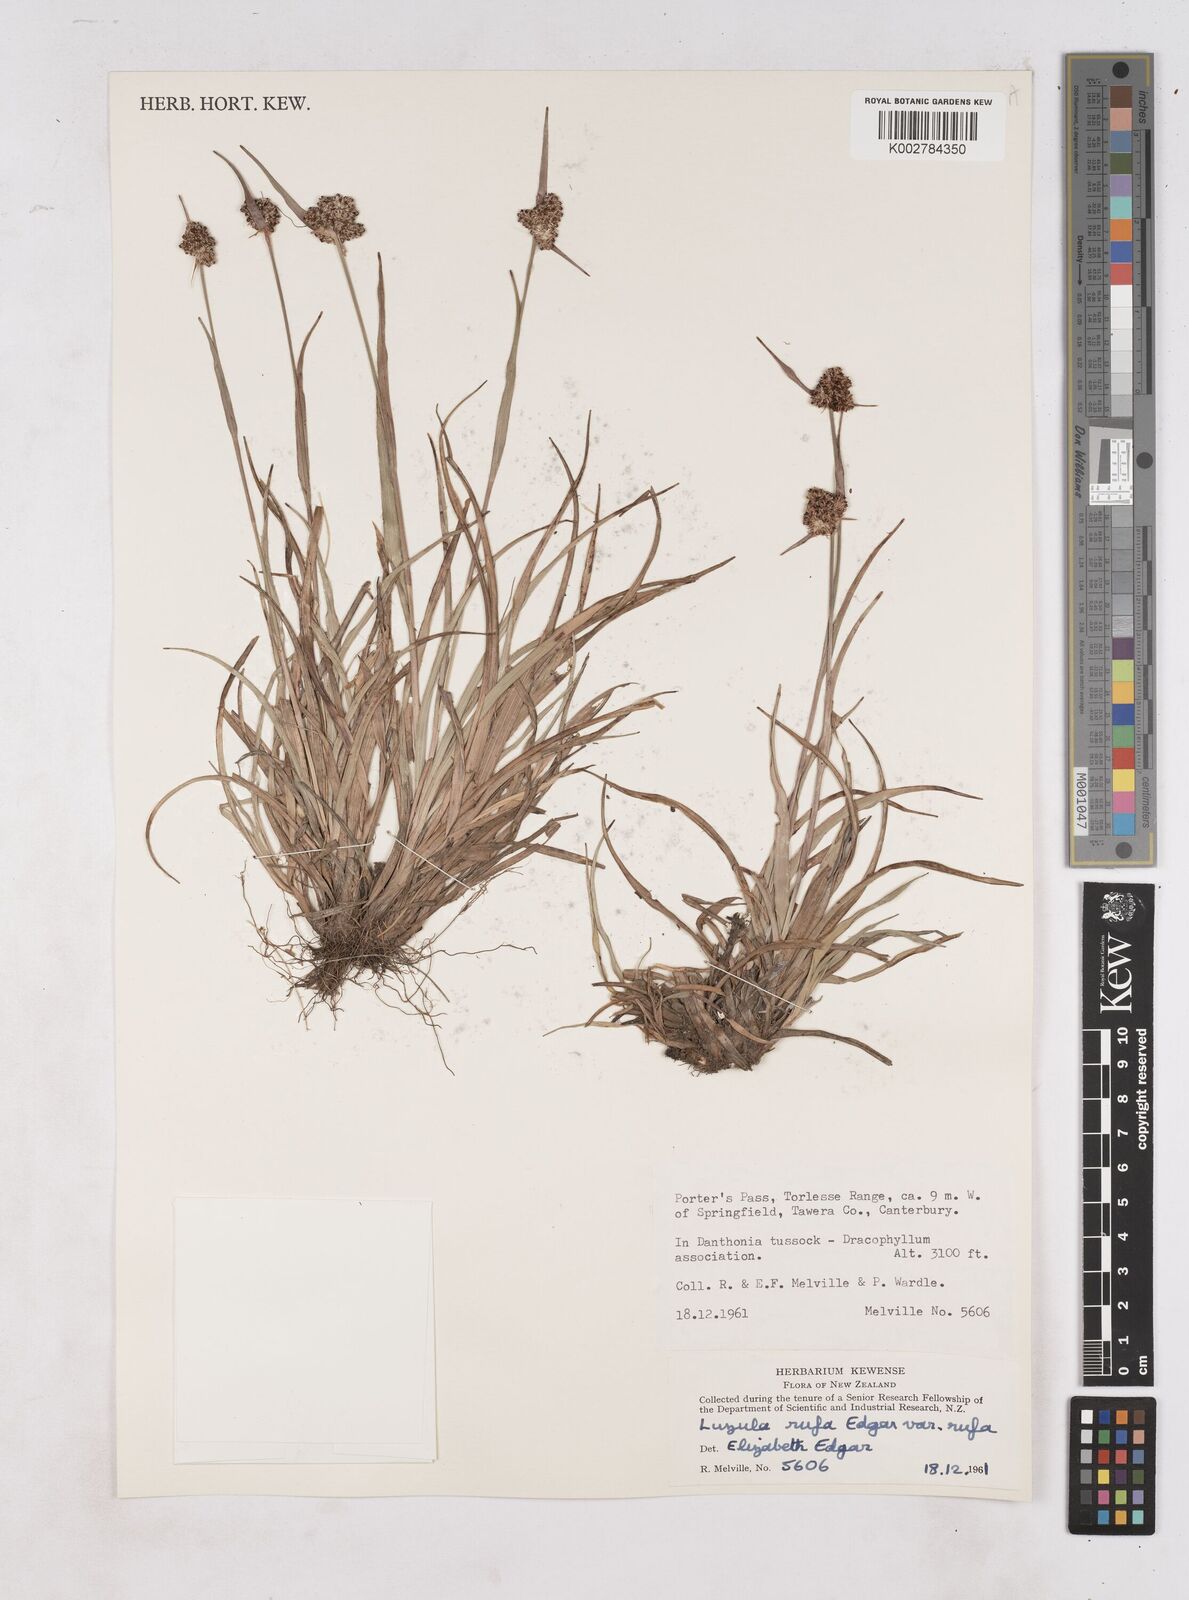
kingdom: Plantae
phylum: Tracheophyta
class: Liliopsida
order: Poales
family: Juncaceae
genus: Luzula
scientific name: Luzula rufa
